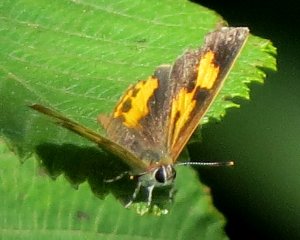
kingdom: Animalia
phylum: Arthropoda
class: Insecta
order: Lepidoptera
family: Lycaenidae
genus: Feniseca
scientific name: Feniseca tarquinius
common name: Harvester
